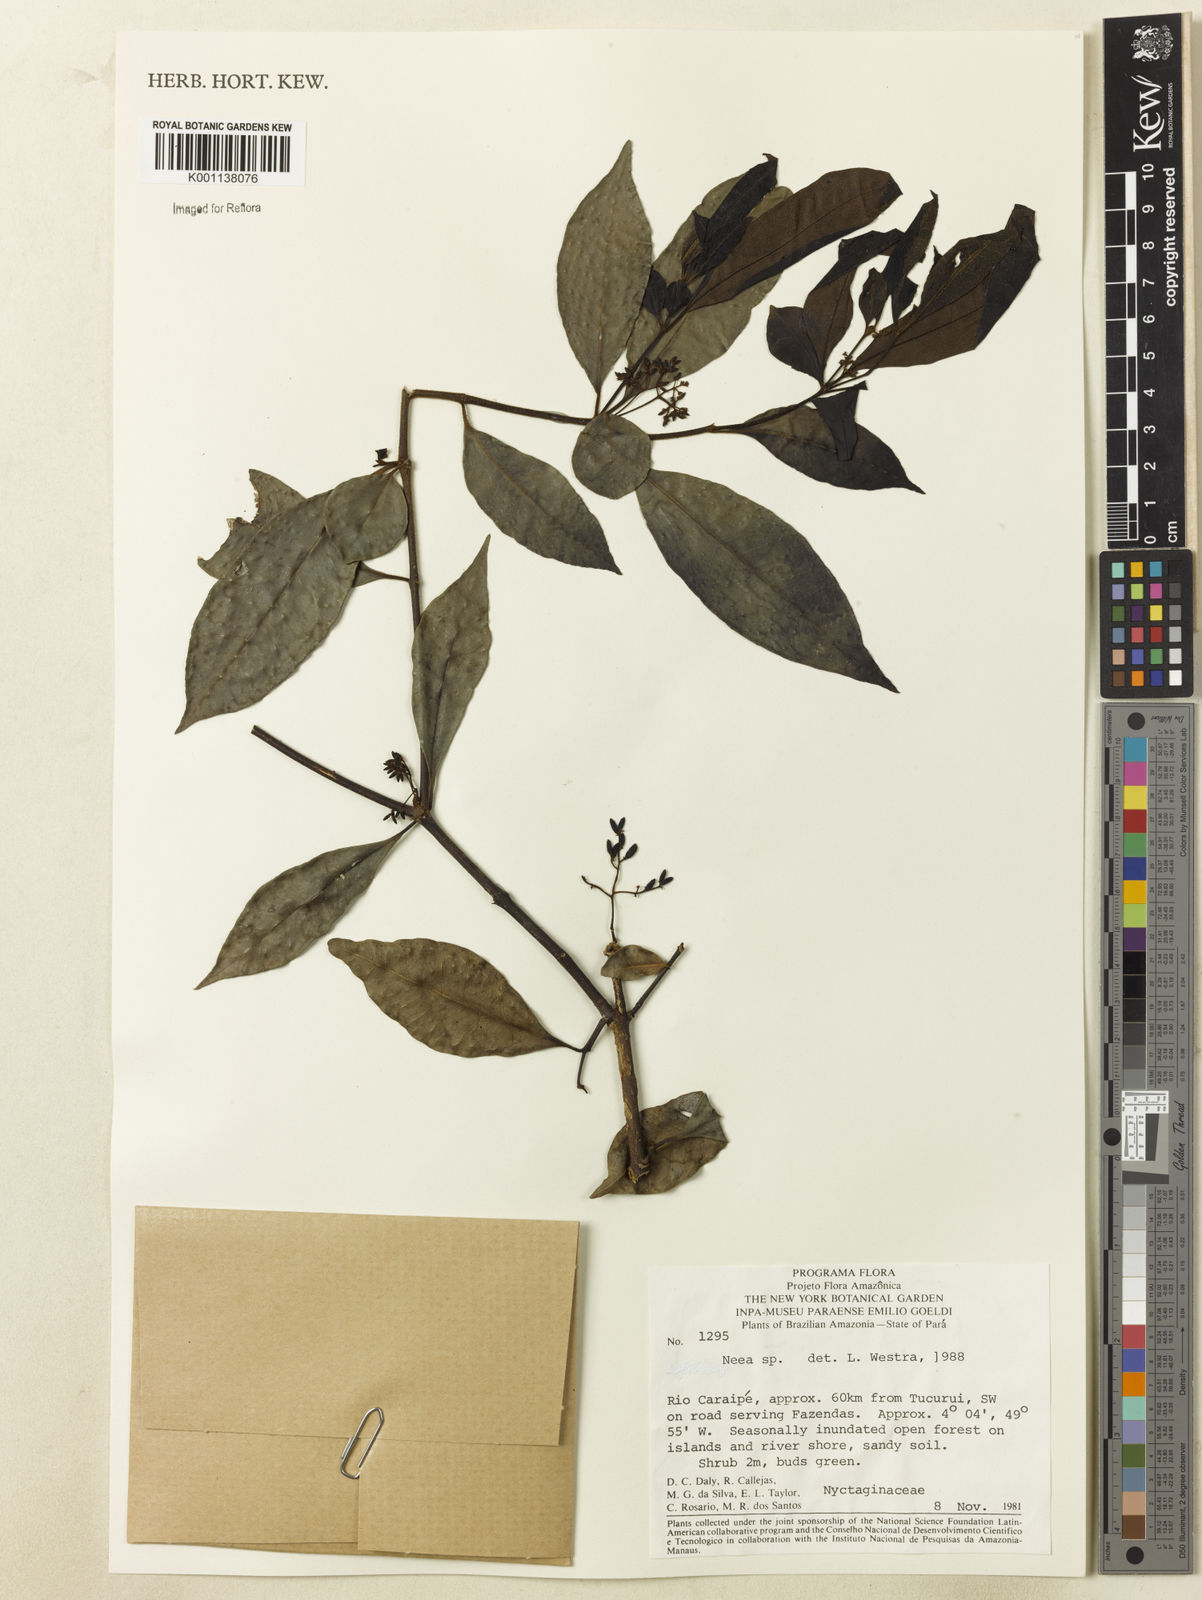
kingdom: Plantae
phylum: Tracheophyta
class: Magnoliopsida
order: Caryophyllales
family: Nyctaginaceae
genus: Neea
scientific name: Neea
